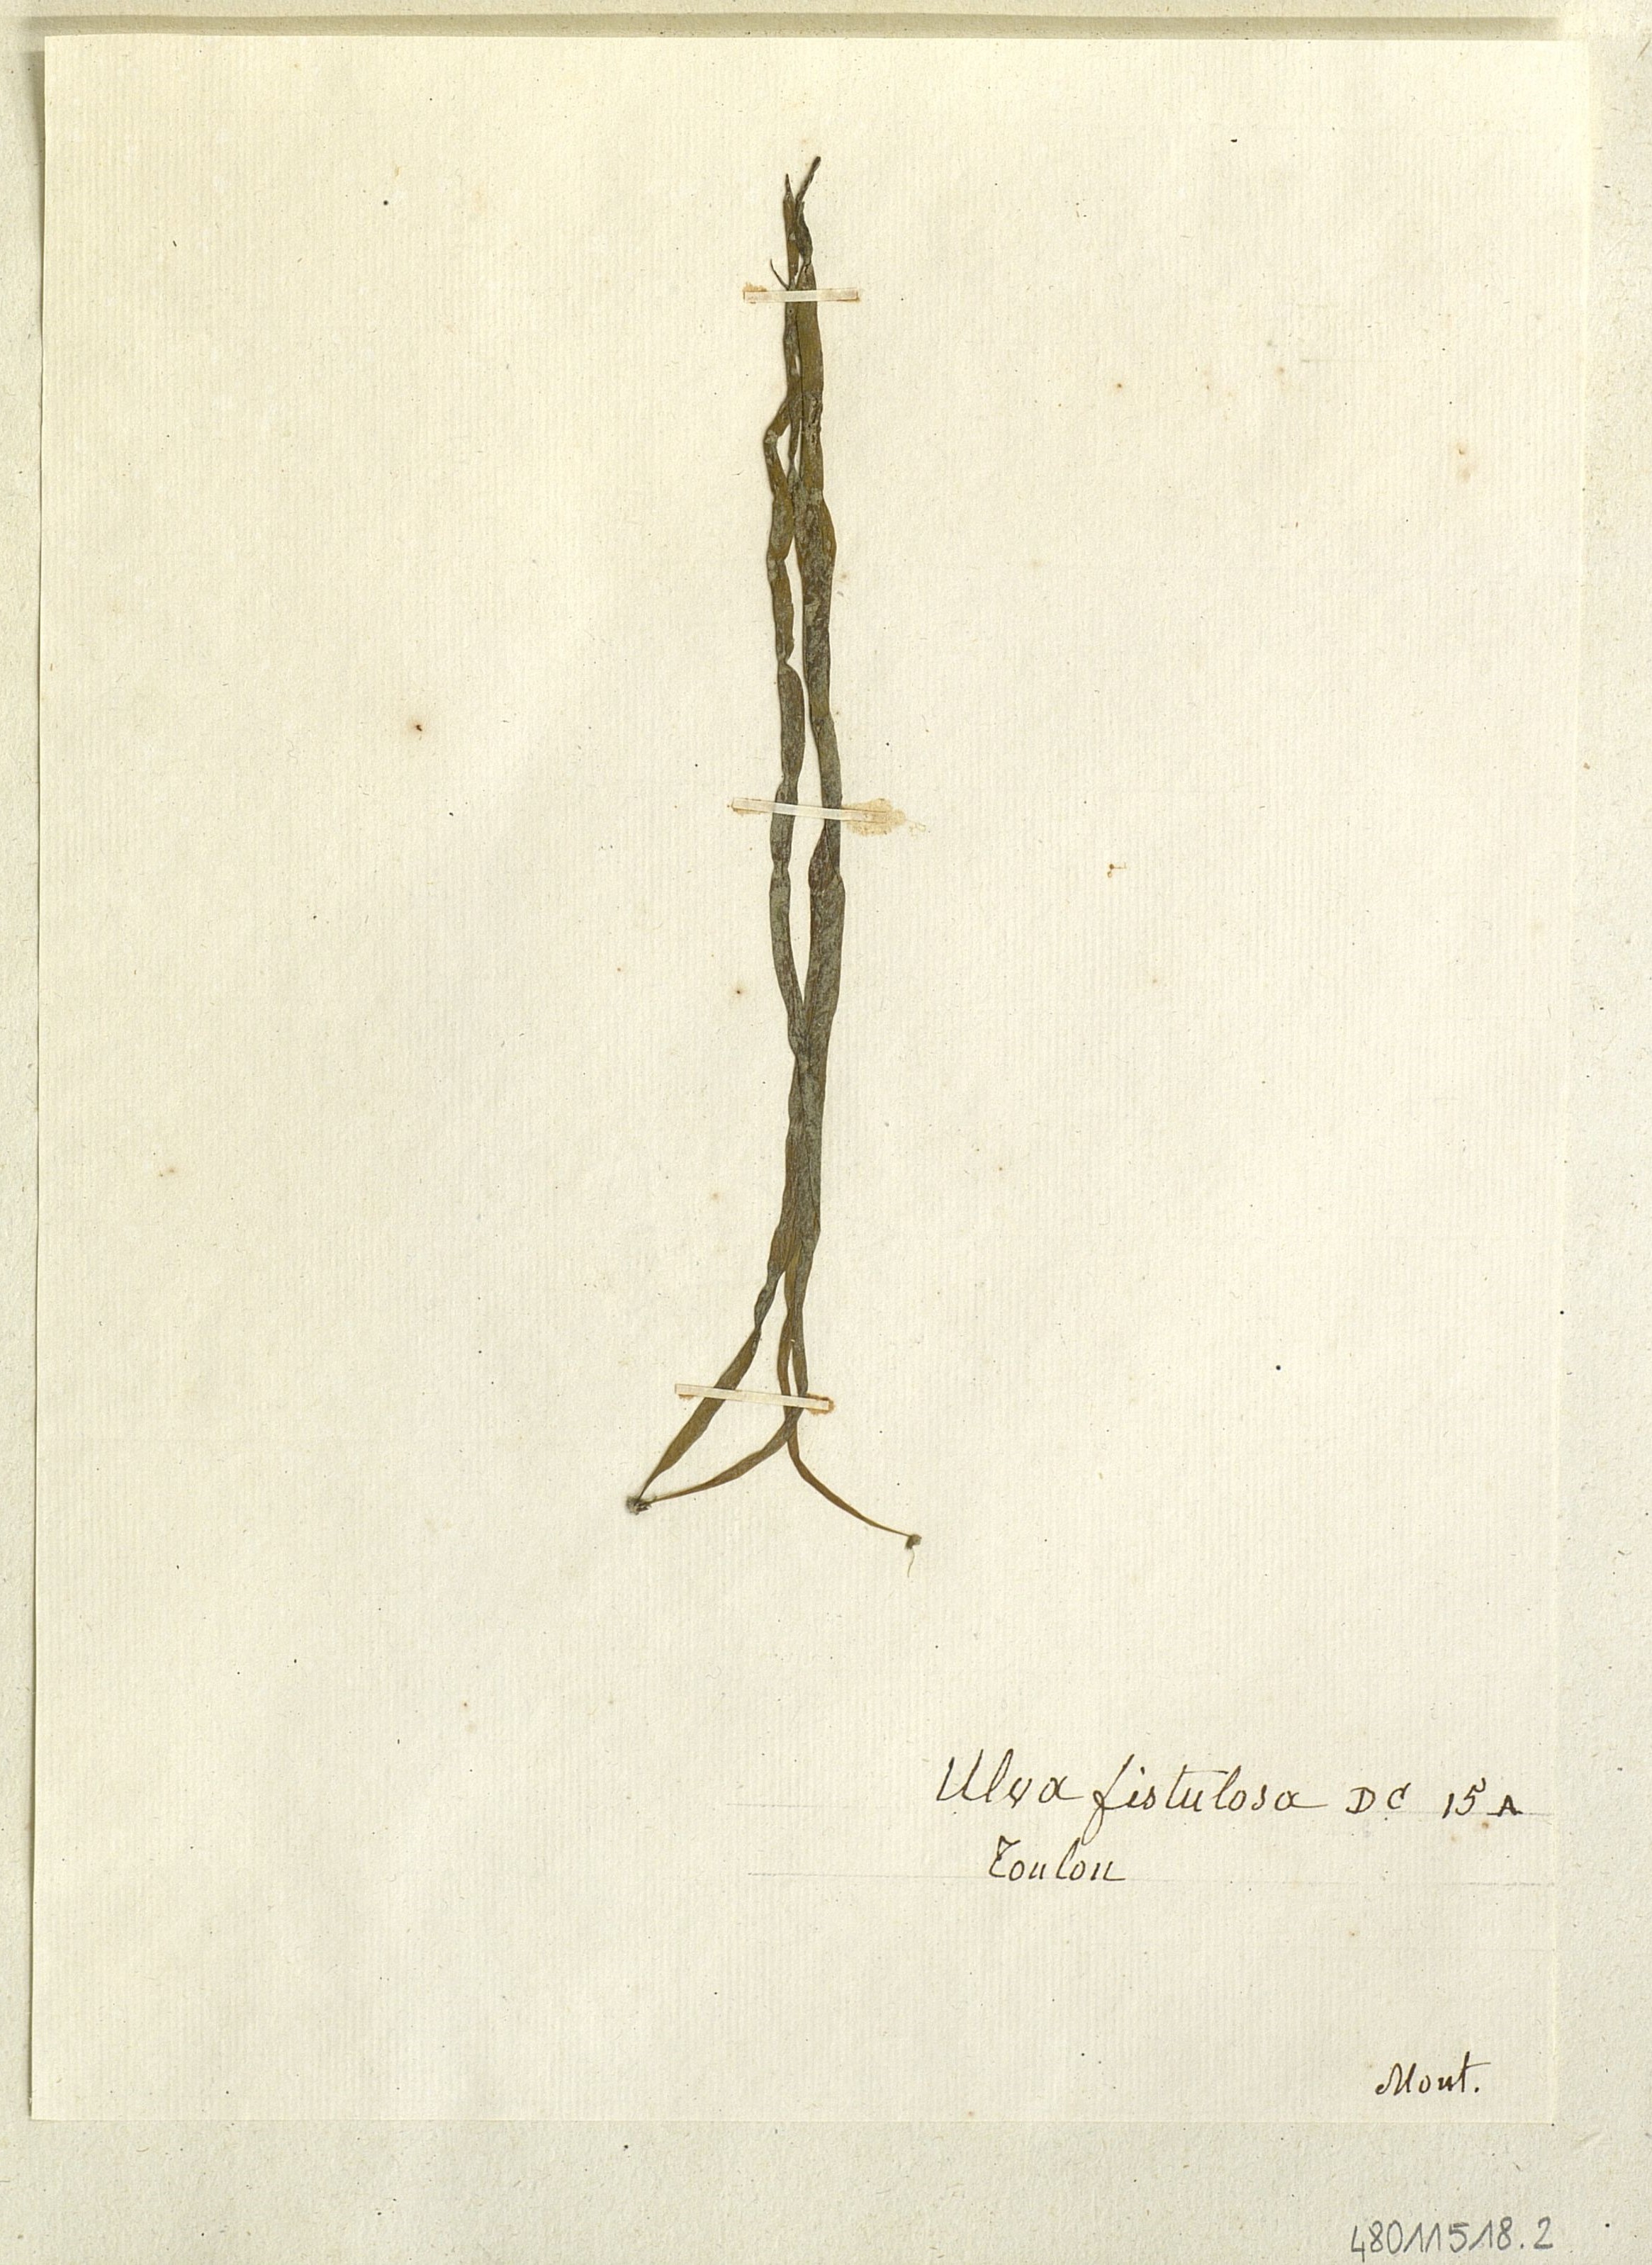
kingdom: Plantae
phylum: Chlorophyta
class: Ulvophyceae
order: Ulvales
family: Ulvaceae
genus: Ulva
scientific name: Ulva
